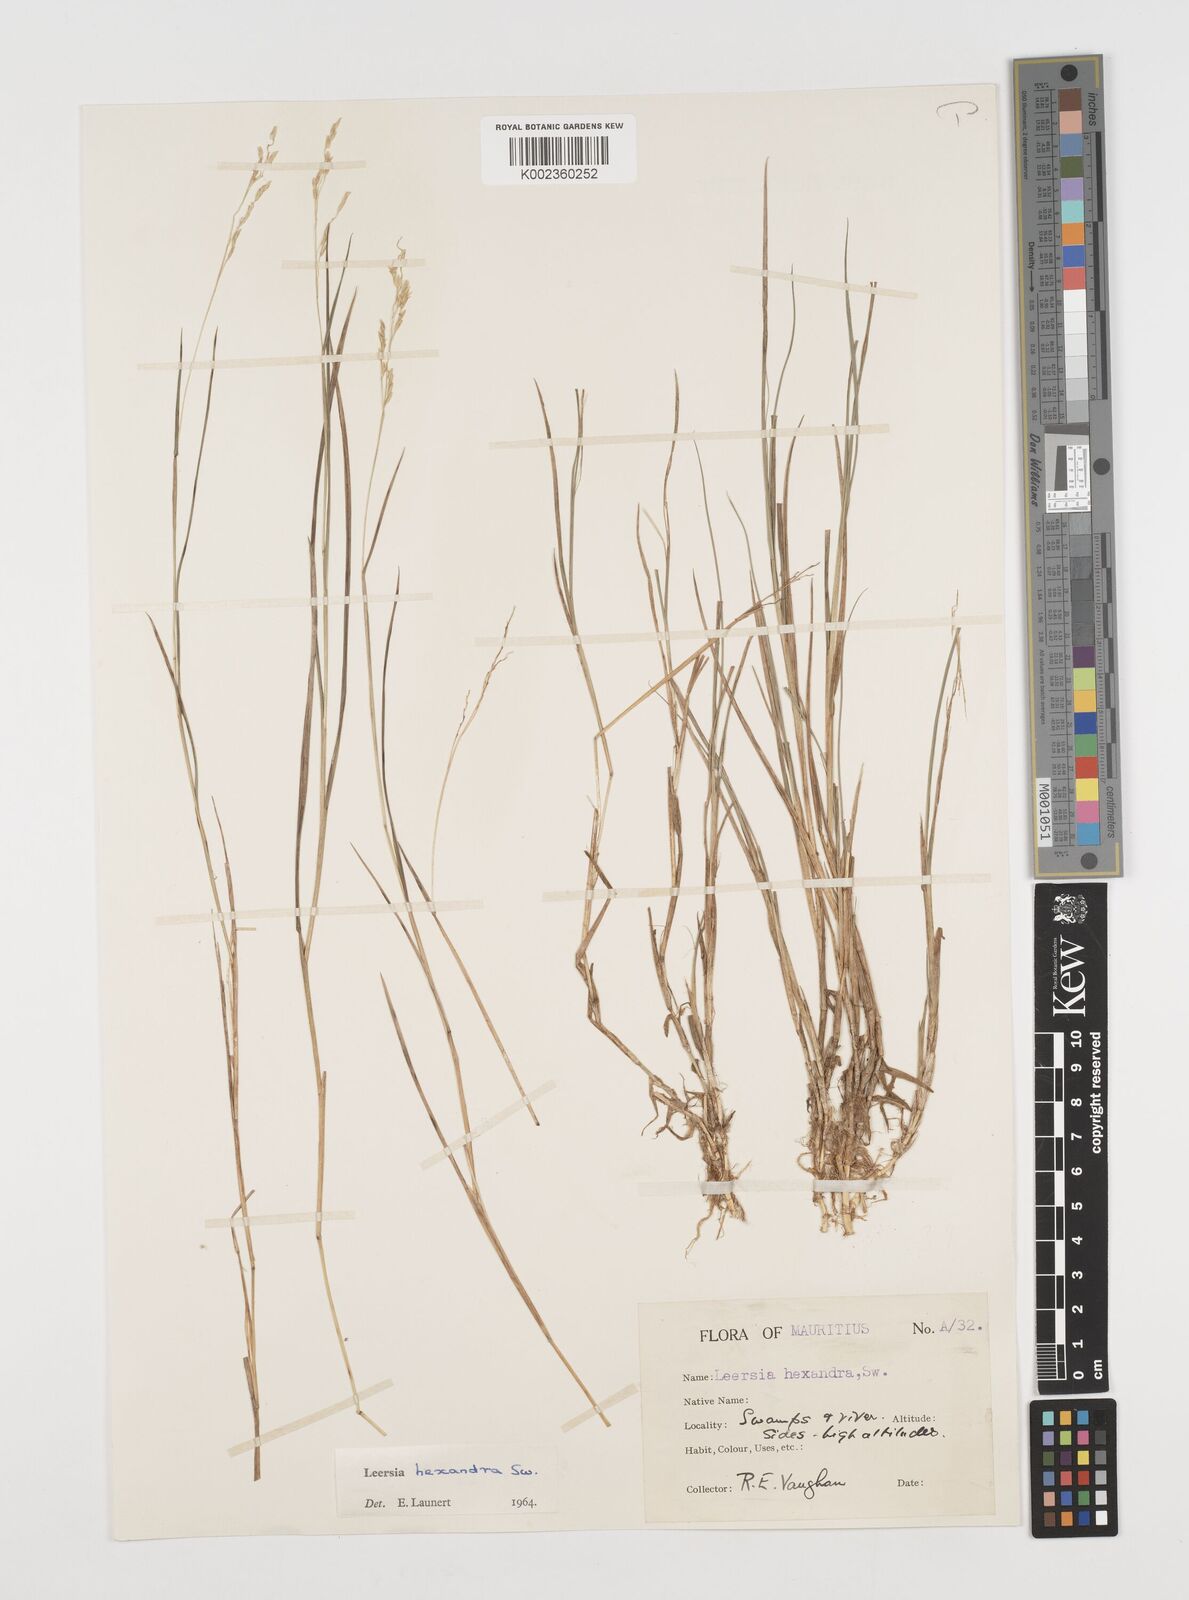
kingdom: Plantae
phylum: Tracheophyta
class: Liliopsida
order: Poales
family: Poaceae
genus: Leersia
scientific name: Leersia hexandra
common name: Southern cut grass
